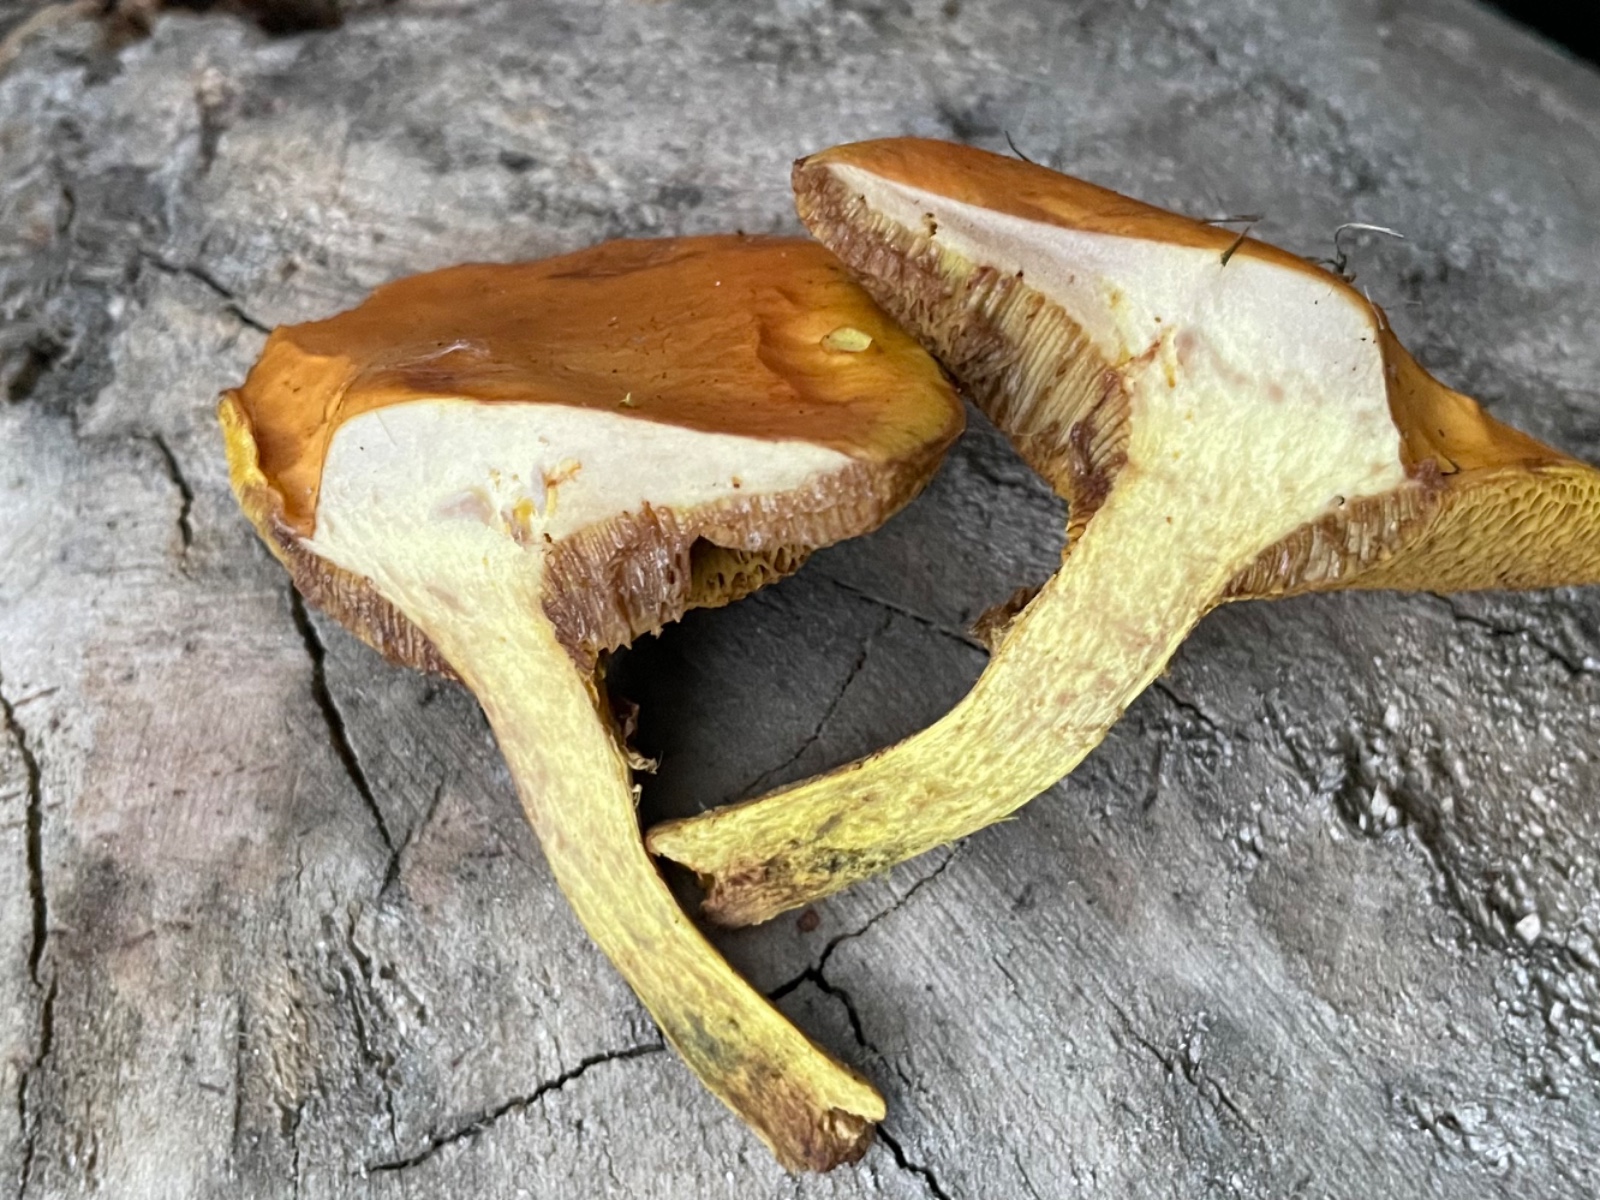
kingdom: Fungi
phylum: Basidiomycota
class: Agaricomycetes
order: Boletales
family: Suillaceae
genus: Suillus
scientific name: Suillus grevillei
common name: lærke-slimrørhat
